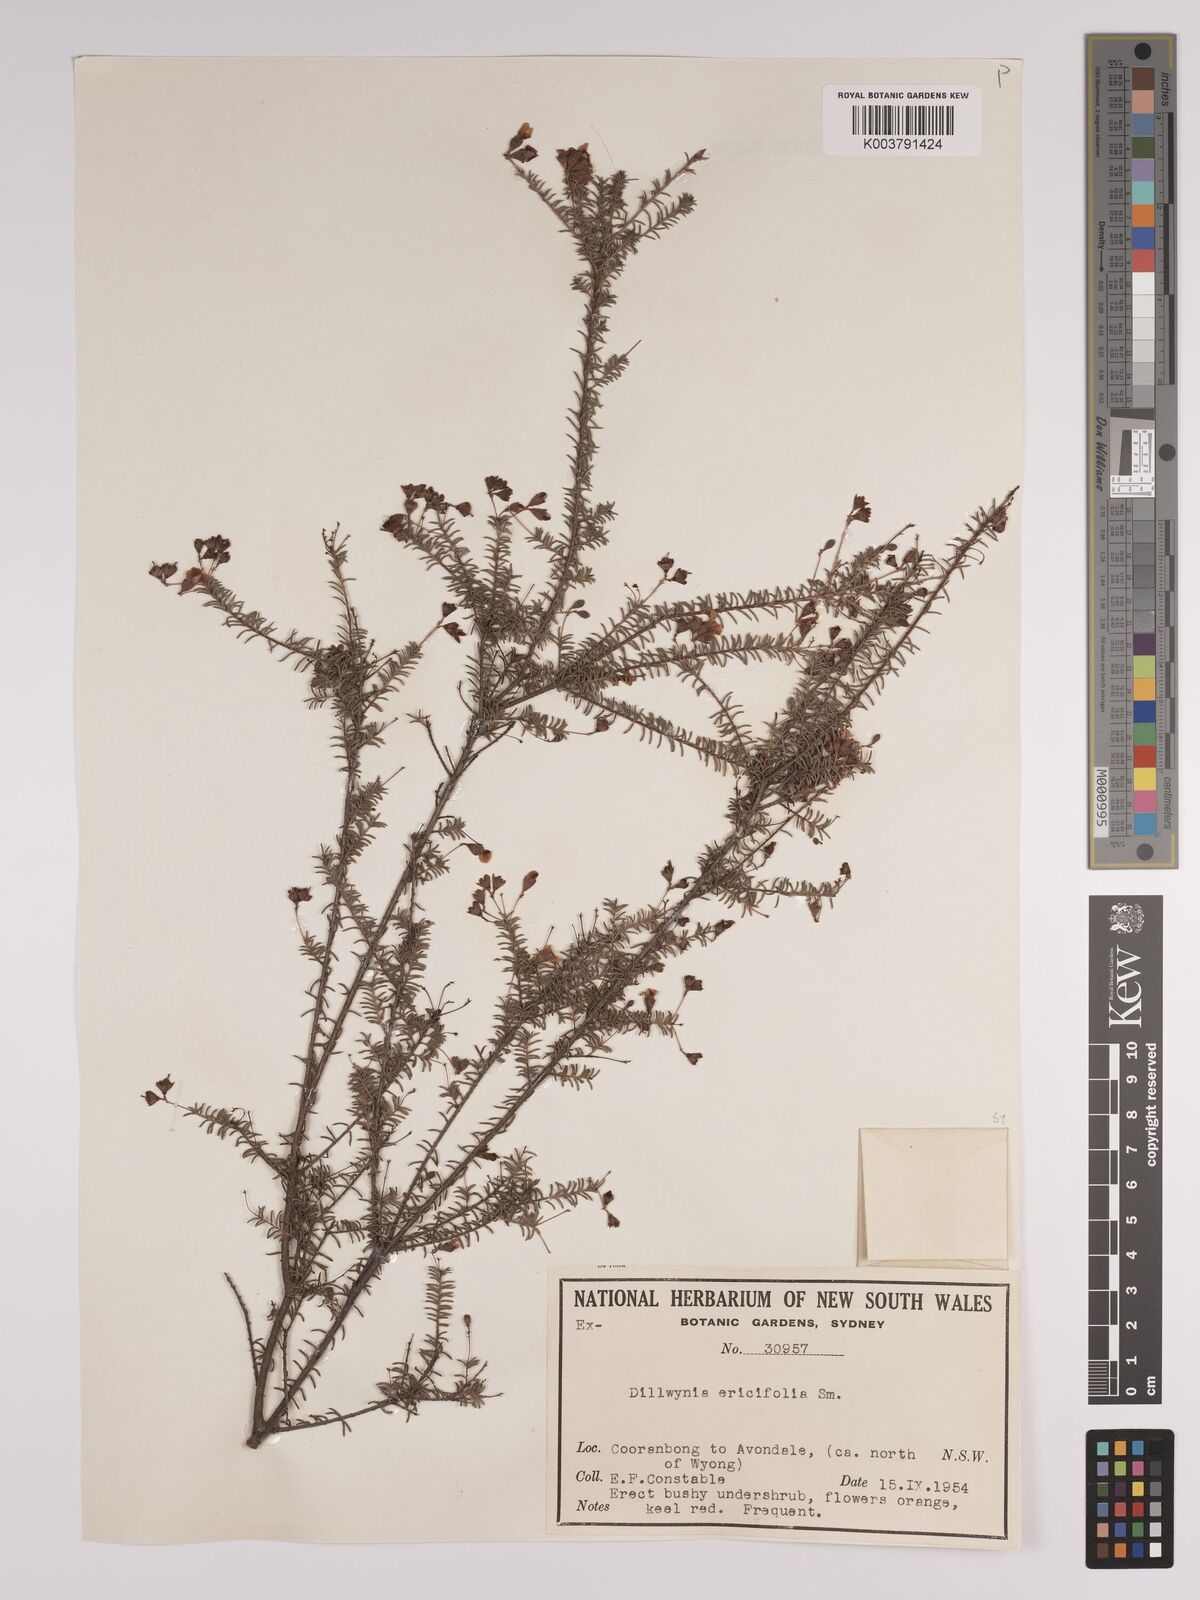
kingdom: Plantae
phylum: Tracheophyta
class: Magnoliopsida
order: Fabales
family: Fabaceae
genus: Dillwynia
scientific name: Dillwynia retorta
